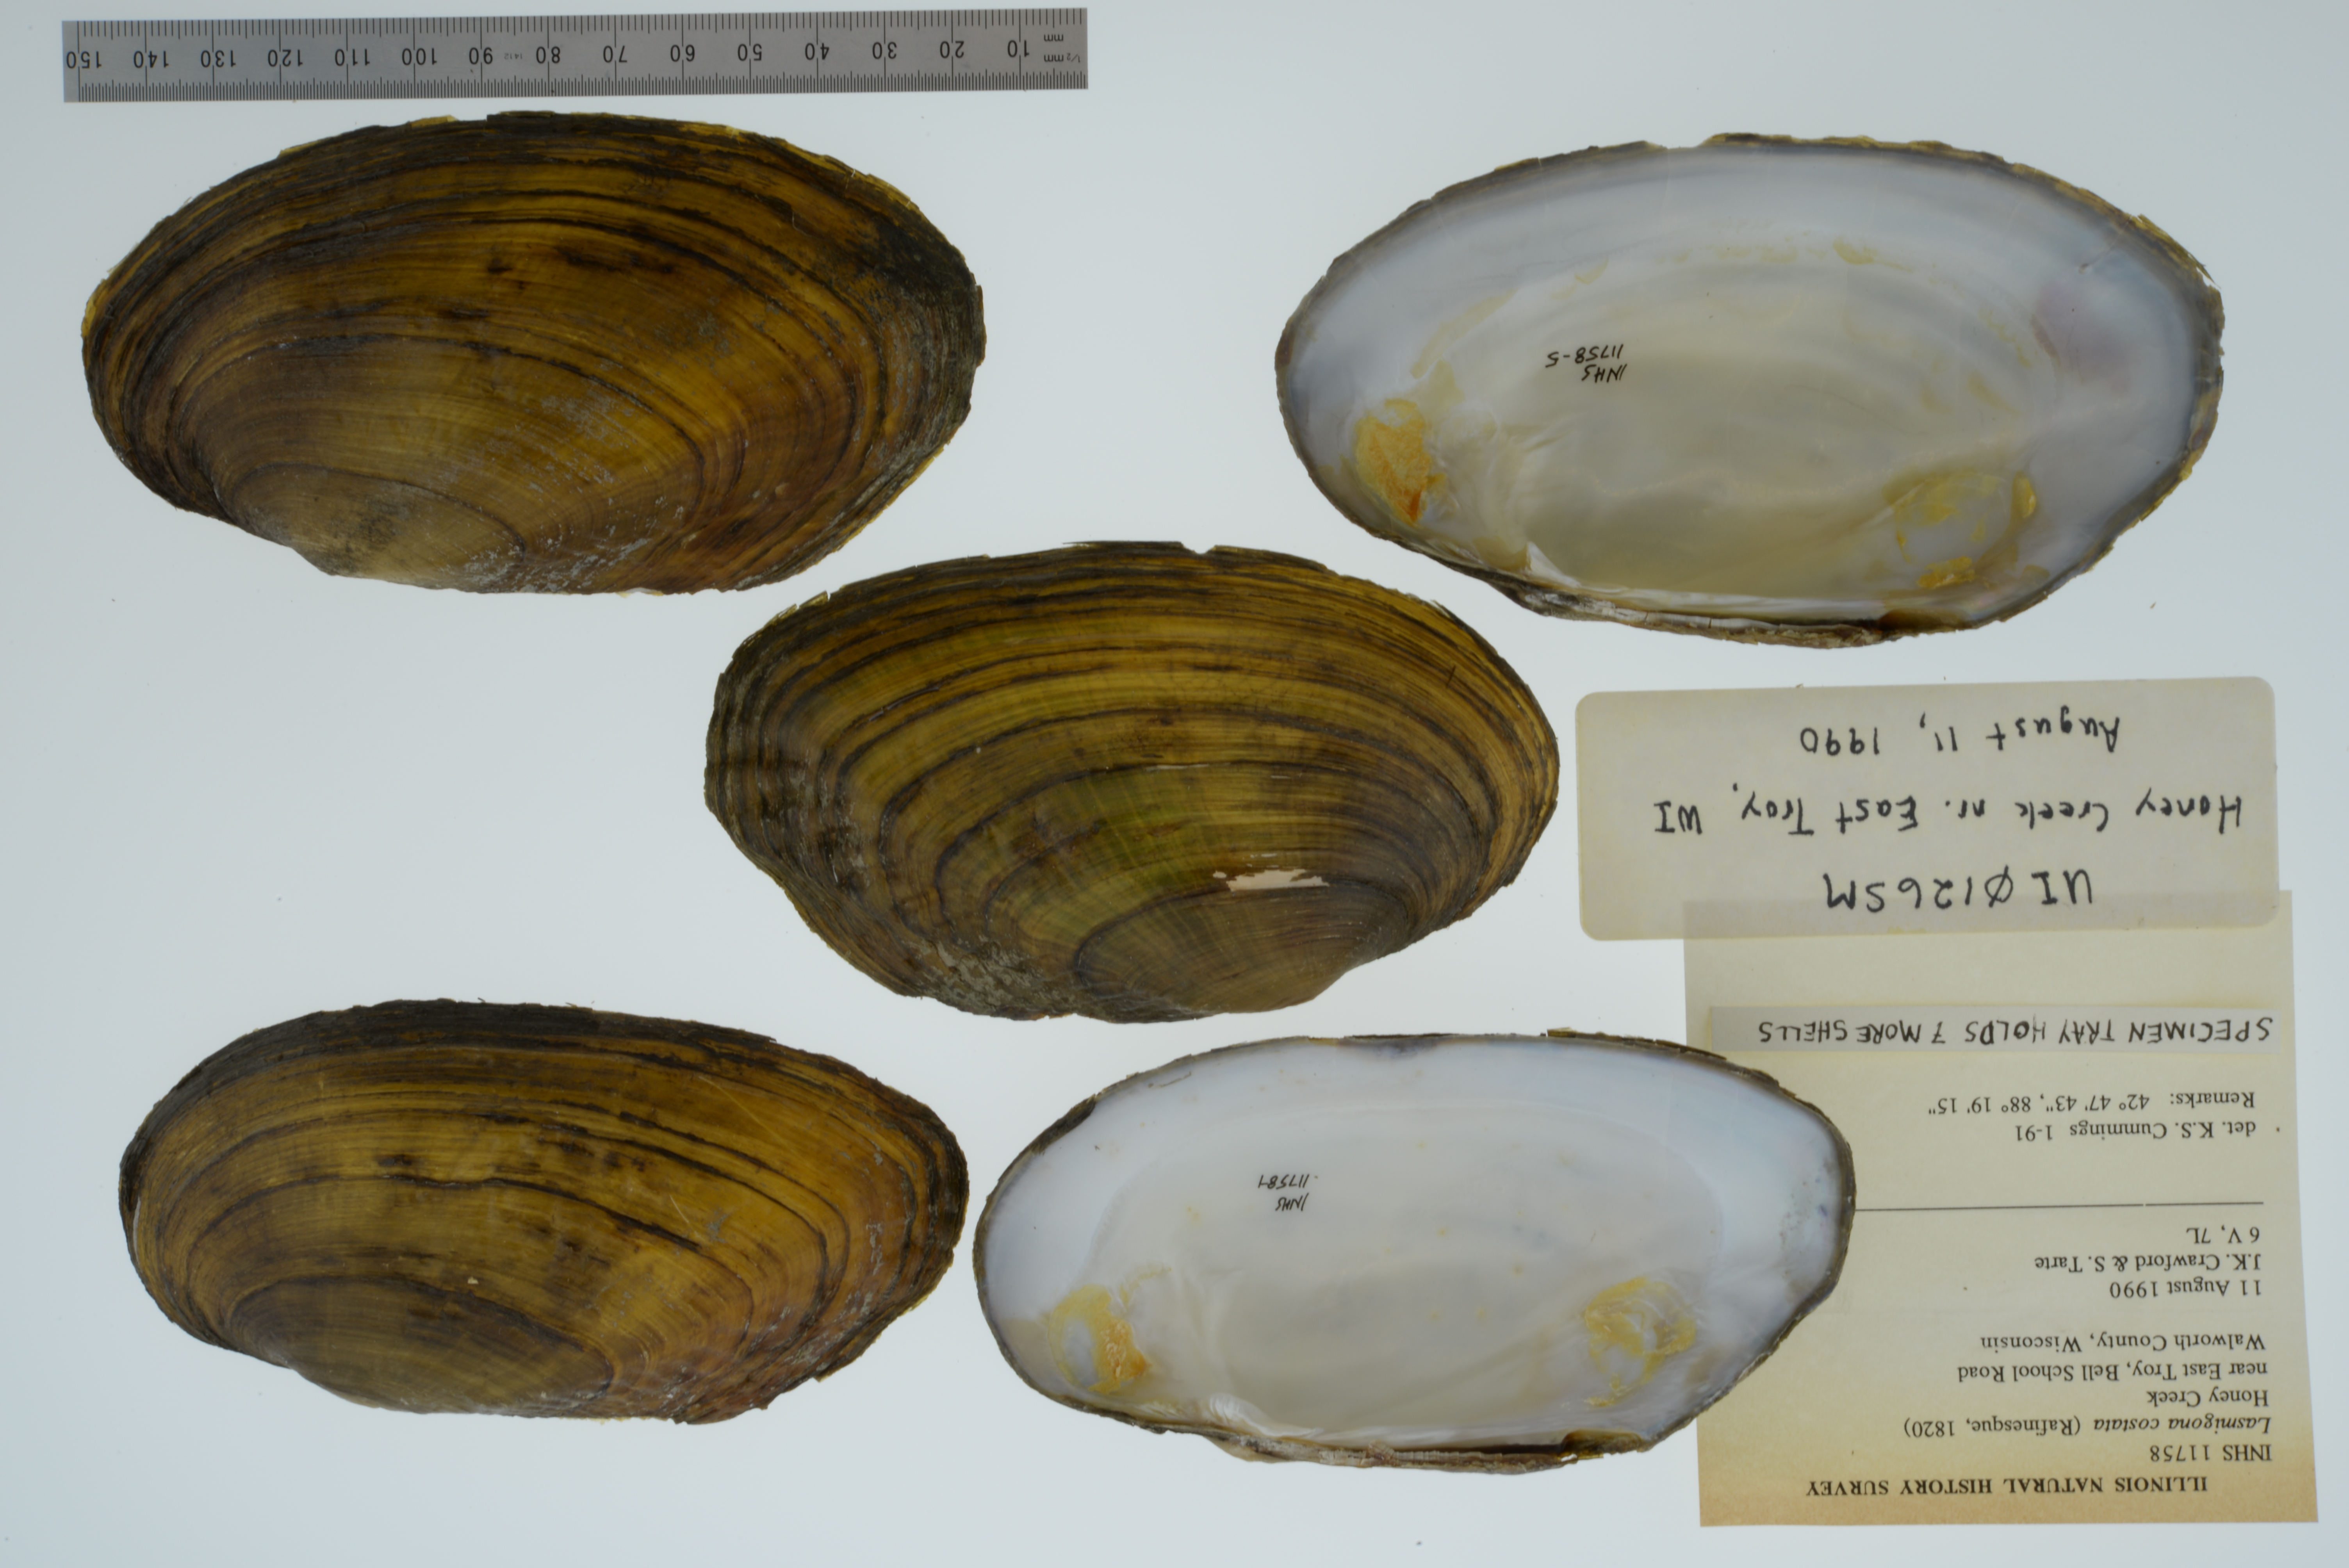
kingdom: Animalia
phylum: Mollusca
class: Bivalvia
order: Unionida
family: Unionidae
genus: Lasmigona
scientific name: Lasmigona costata
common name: Flutedshell
